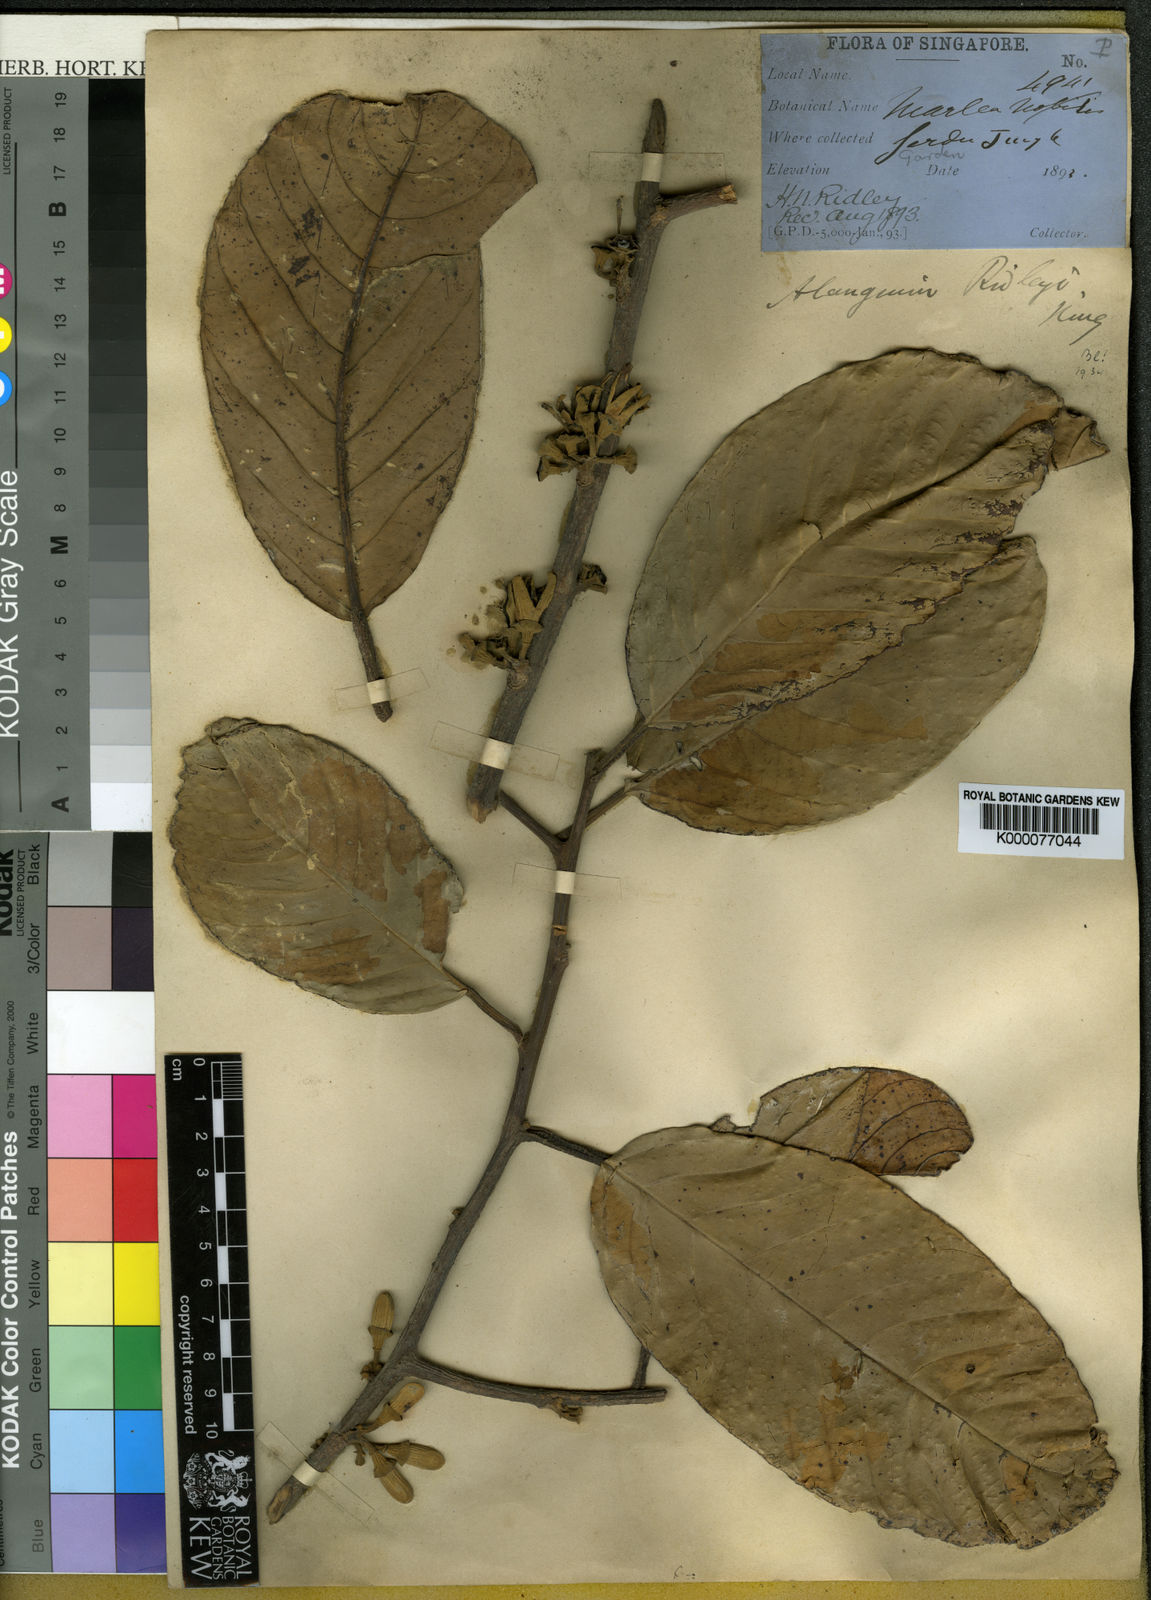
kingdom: Plantae
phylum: Tracheophyta
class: Magnoliopsida
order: Cornales
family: Cornaceae
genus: Alangium
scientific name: Alangium ridleyi
